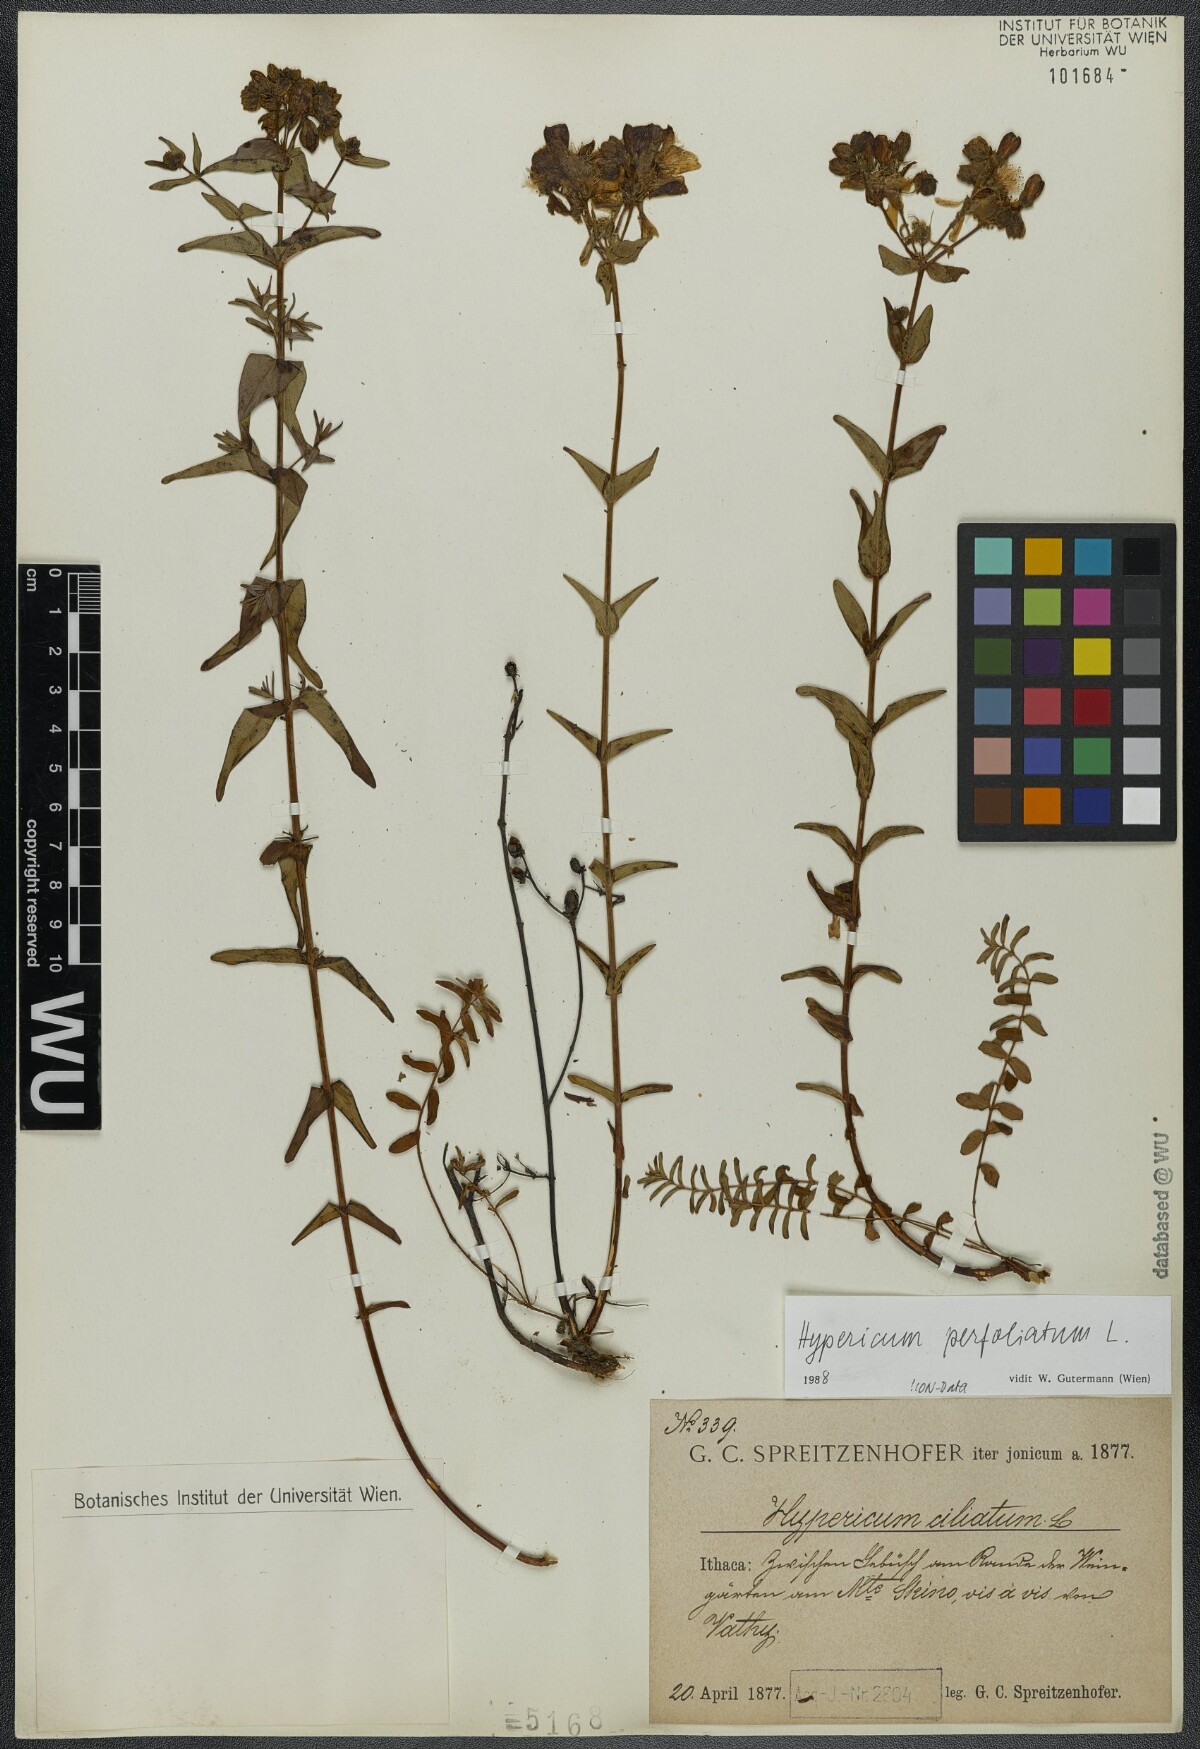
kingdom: Plantae
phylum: Tracheophyta
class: Magnoliopsida
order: Malpighiales
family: Hypericaceae
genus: Hypericum
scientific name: Hypericum perfoliatum
